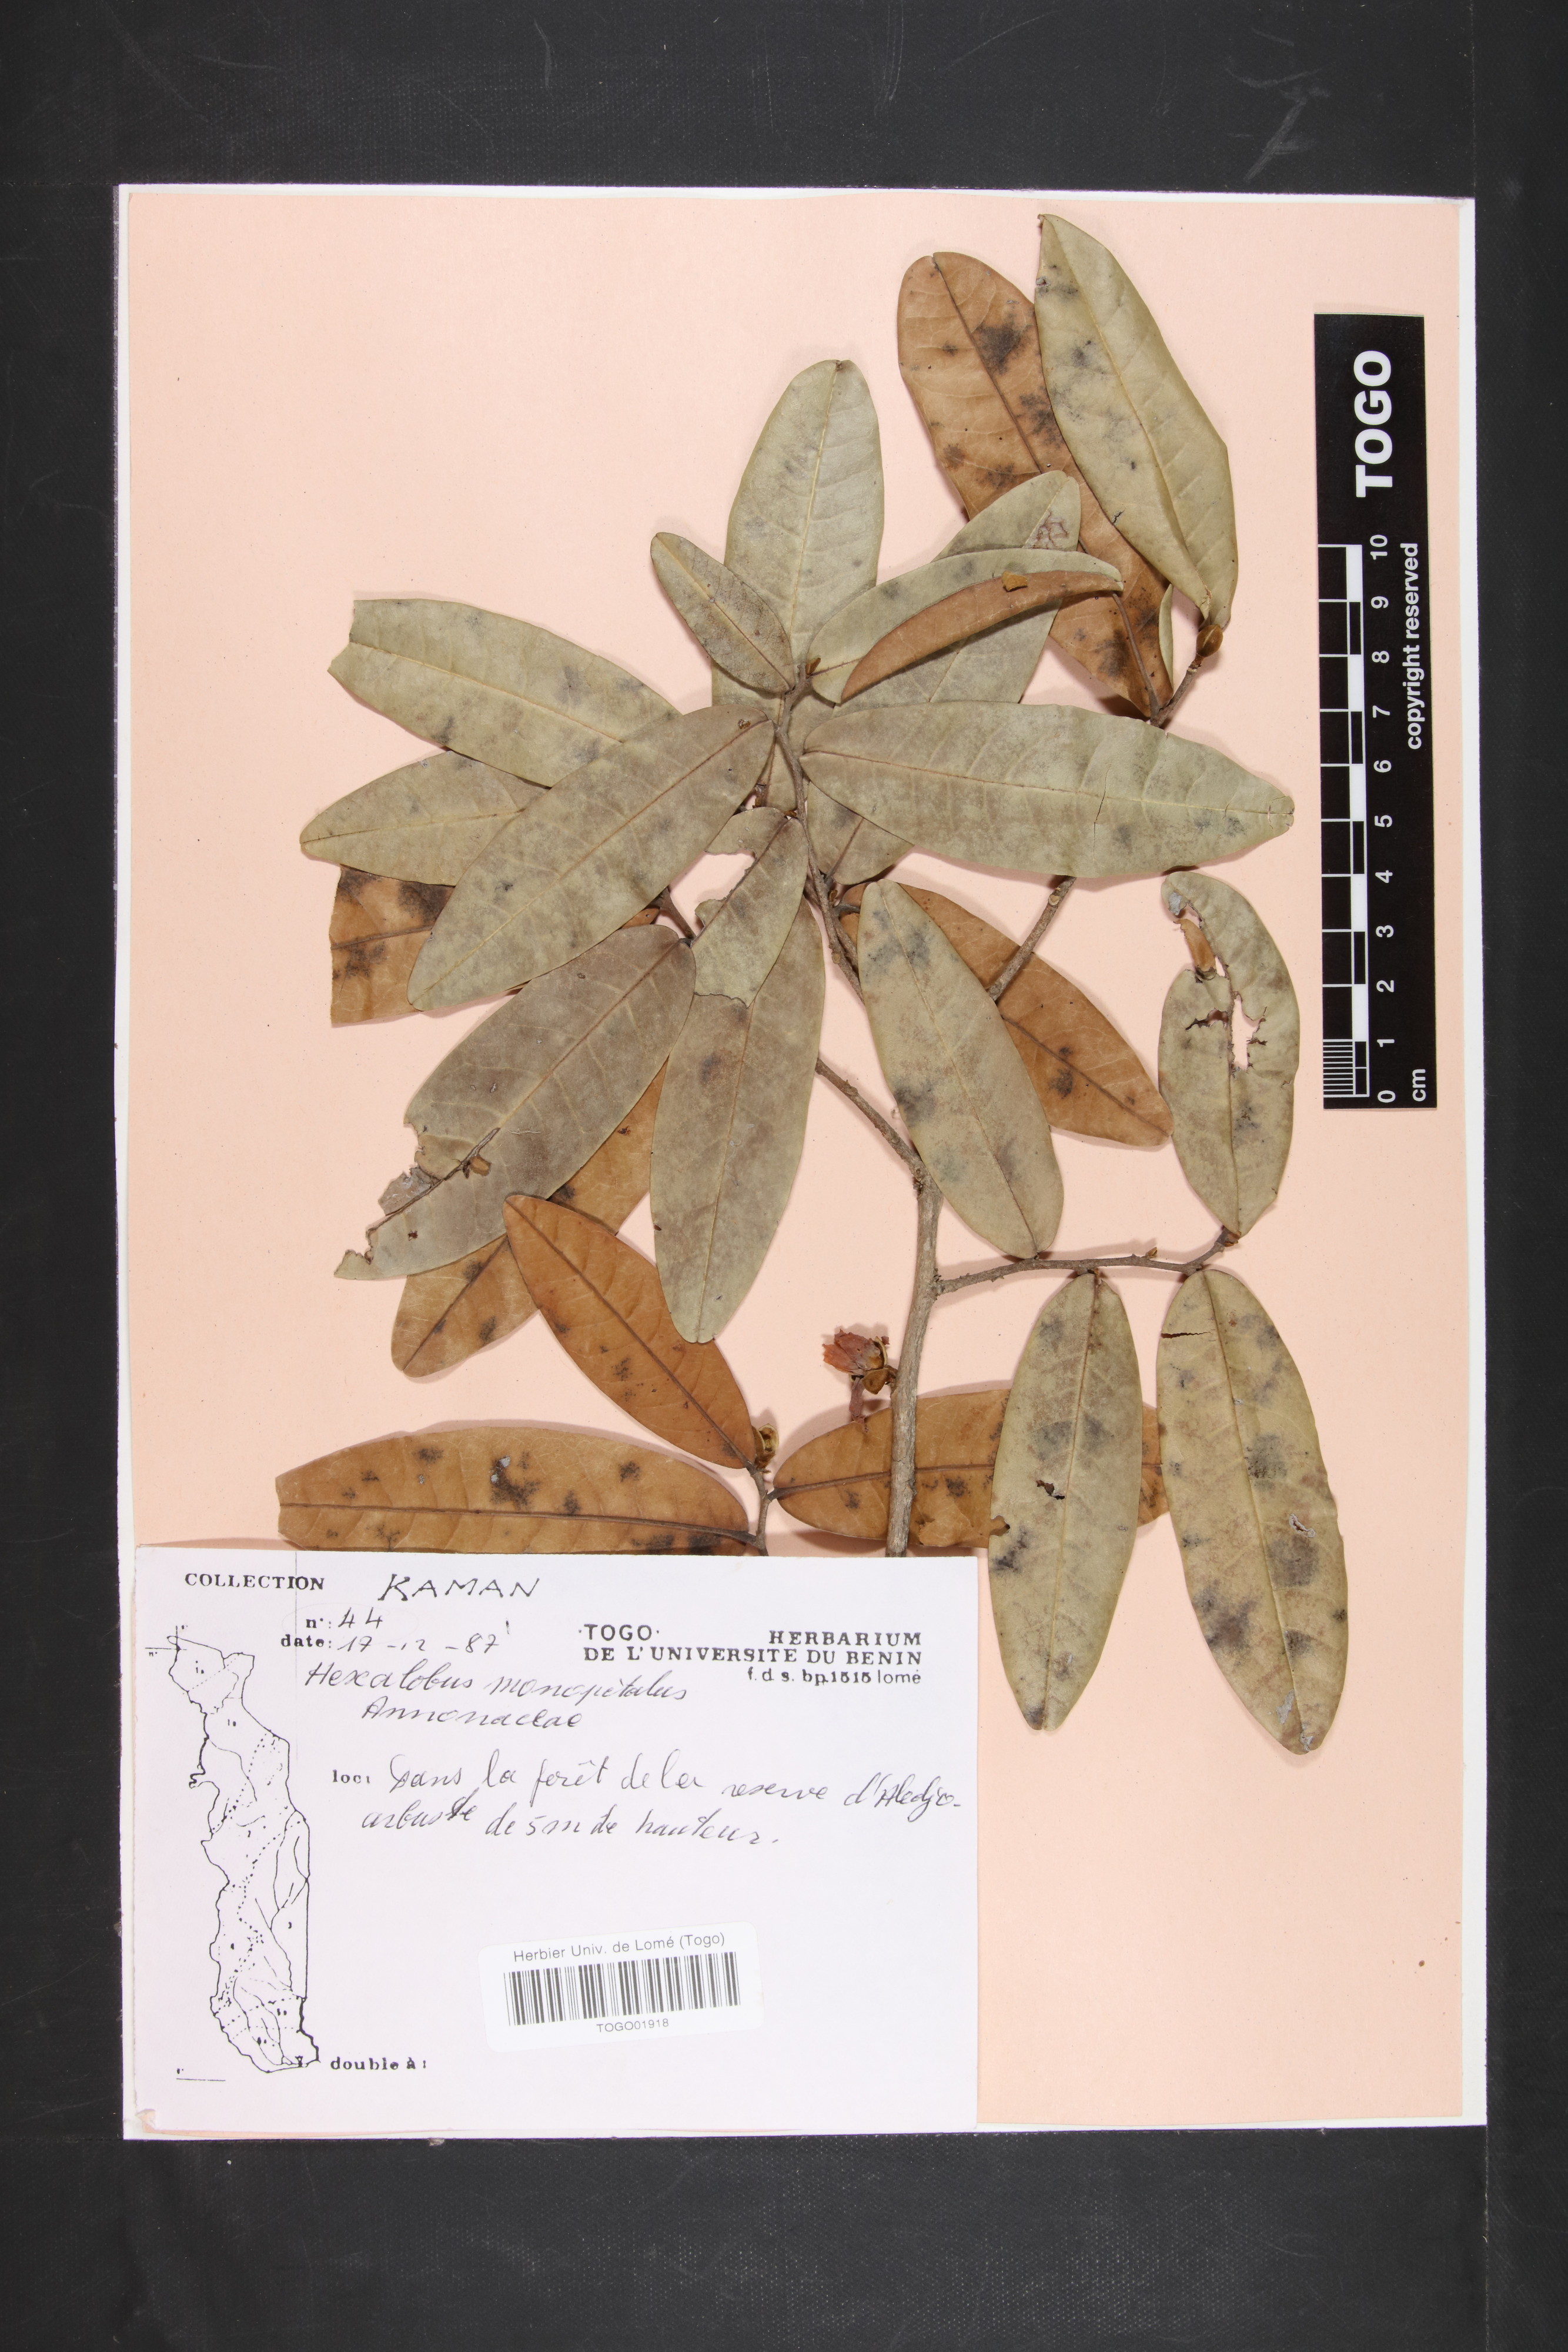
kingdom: Plantae
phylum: Tracheophyta
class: Magnoliopsida
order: Magnoliales
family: Annonaceae
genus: Hexalobus
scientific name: Hexalobus monopetalus
